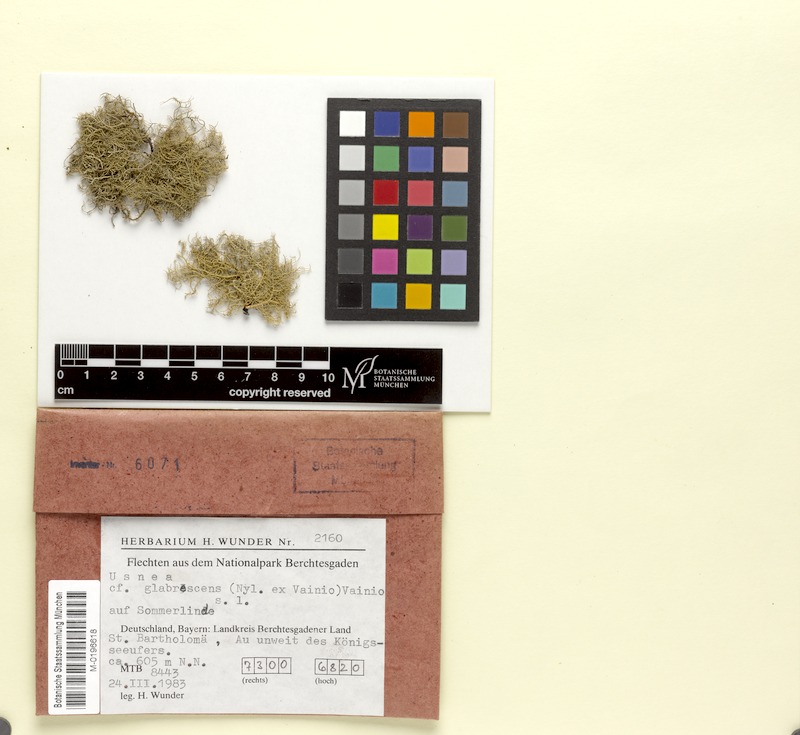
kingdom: Fungi
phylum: Ascomycota
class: Lecanoromycetes
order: Lecanorales
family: Parmeliaceae
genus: Usnea
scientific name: Usnea glabrescens
